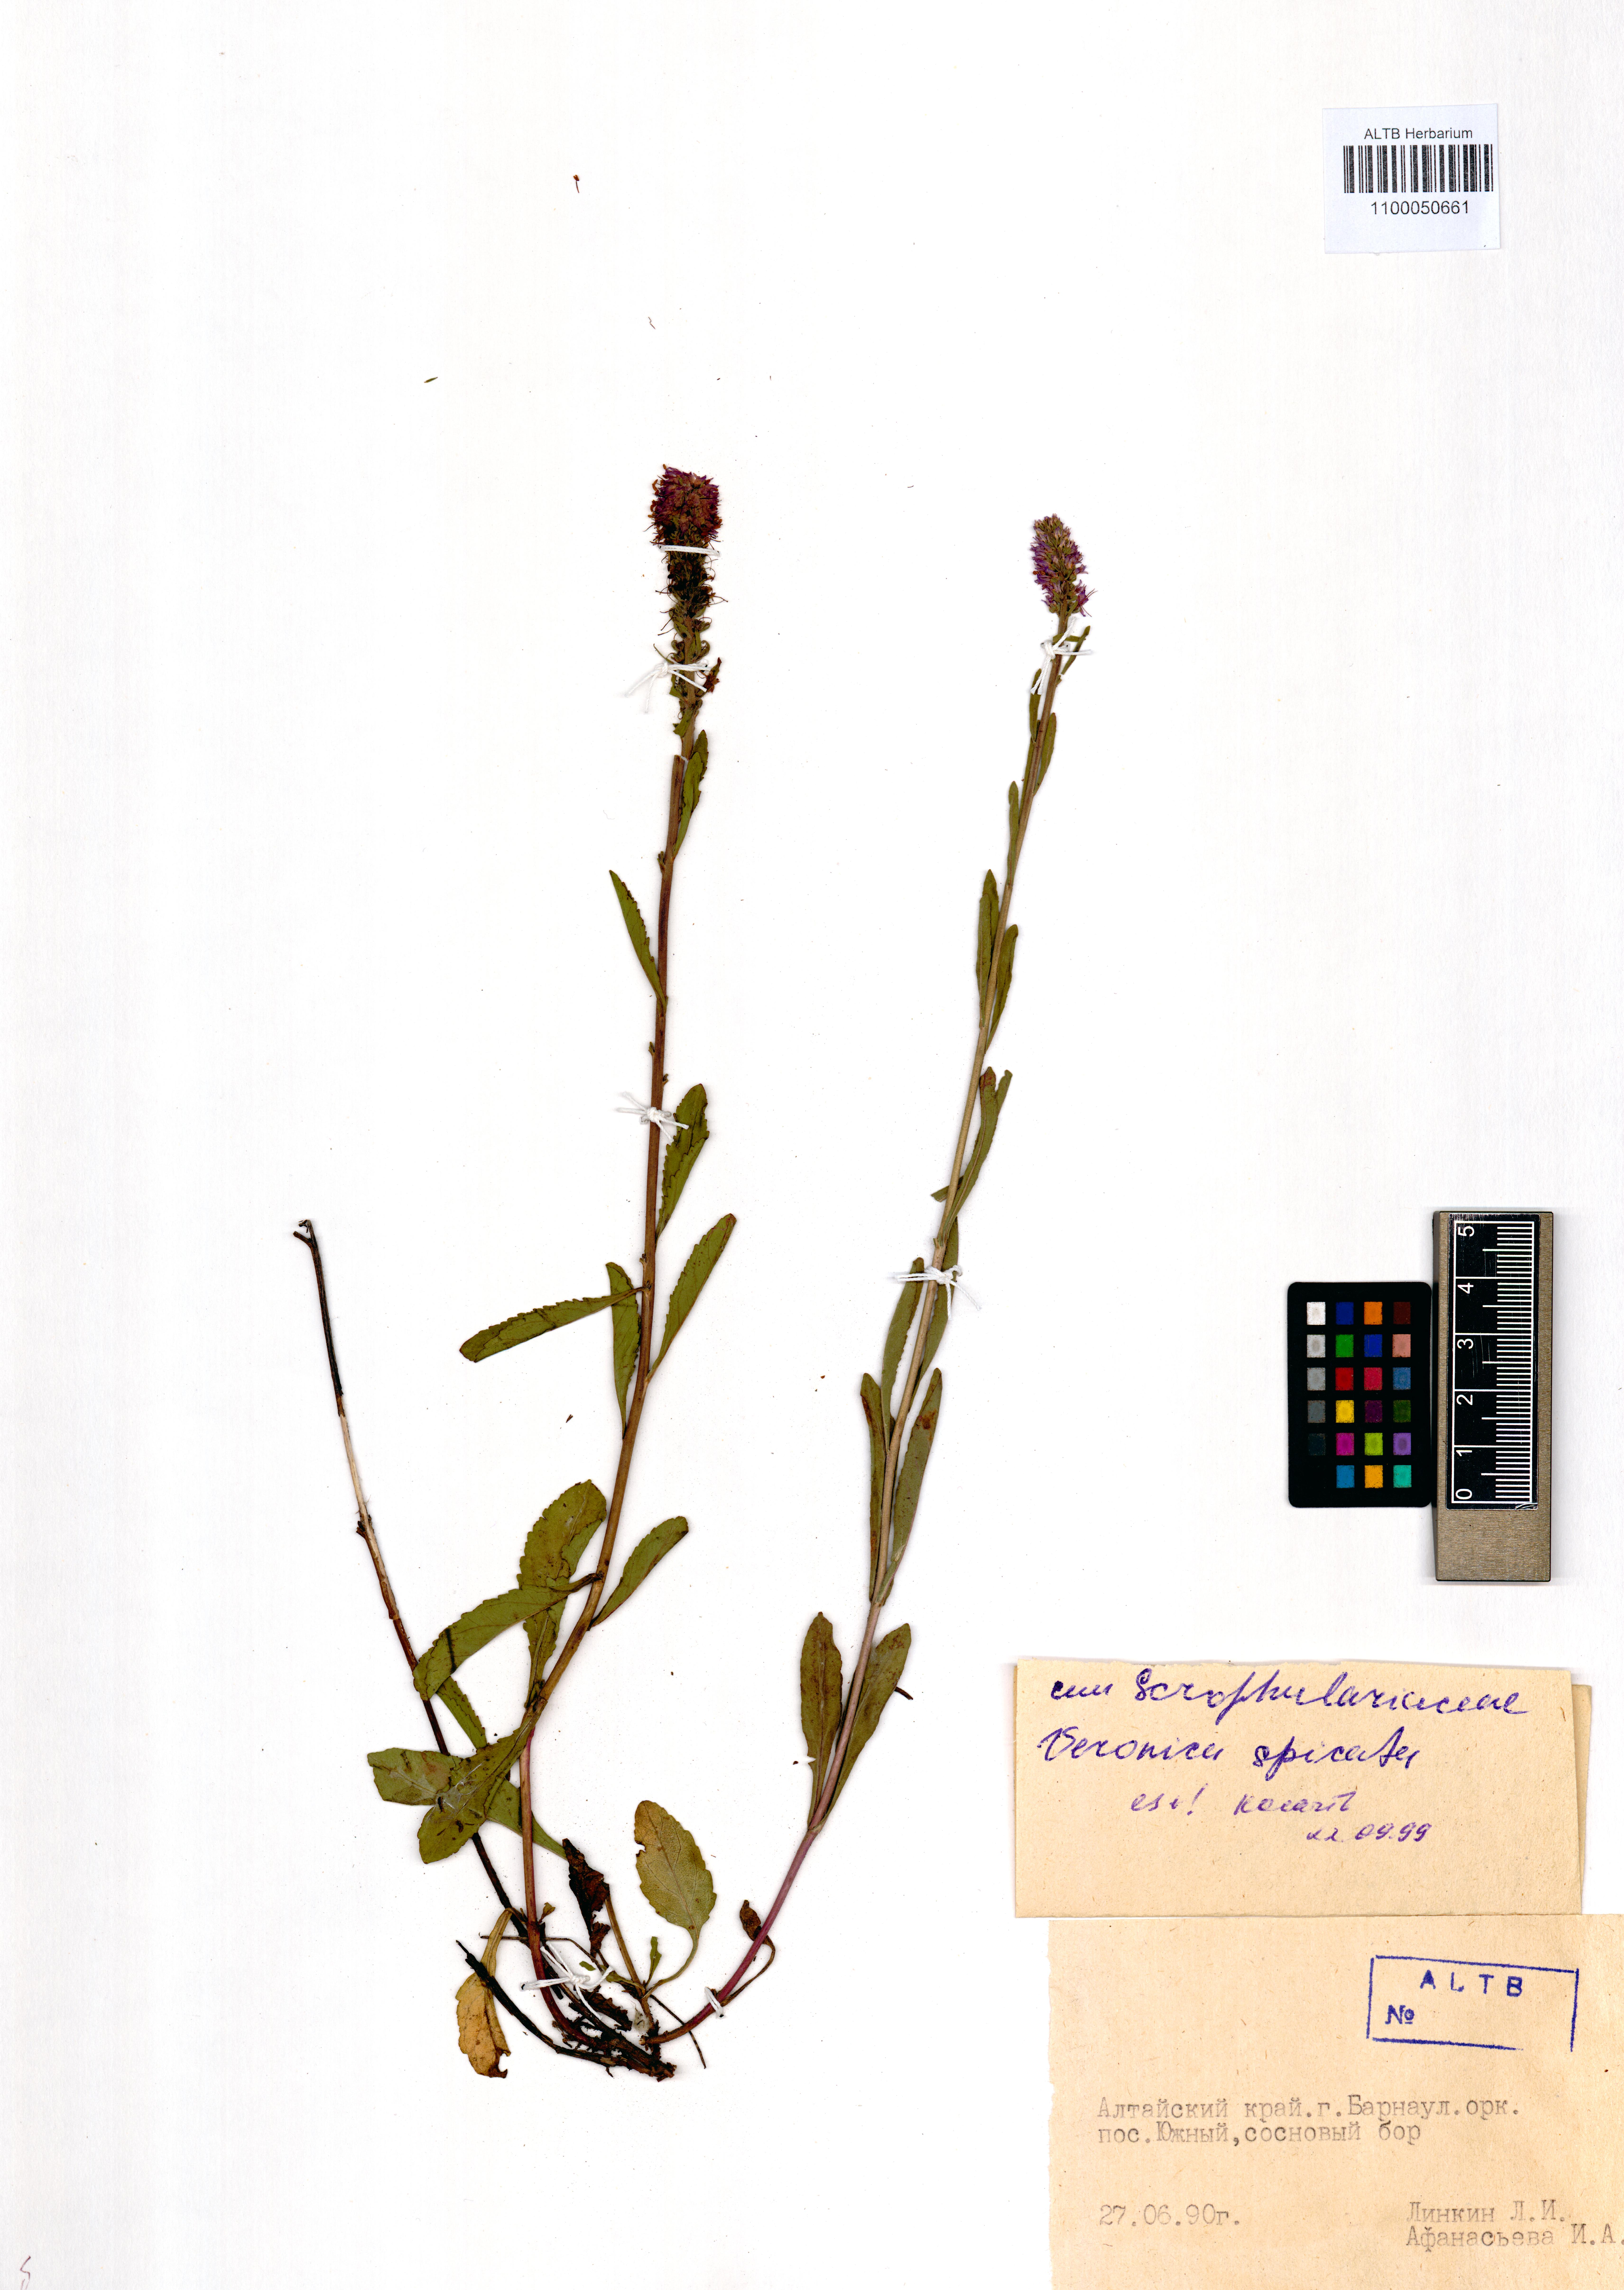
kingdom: Plantae
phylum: Tracheophyta
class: Magnoliopsida
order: Lamiales
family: Plantaginaceae
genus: Veronica
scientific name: Veronica spicata
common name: Spiked speedwell
